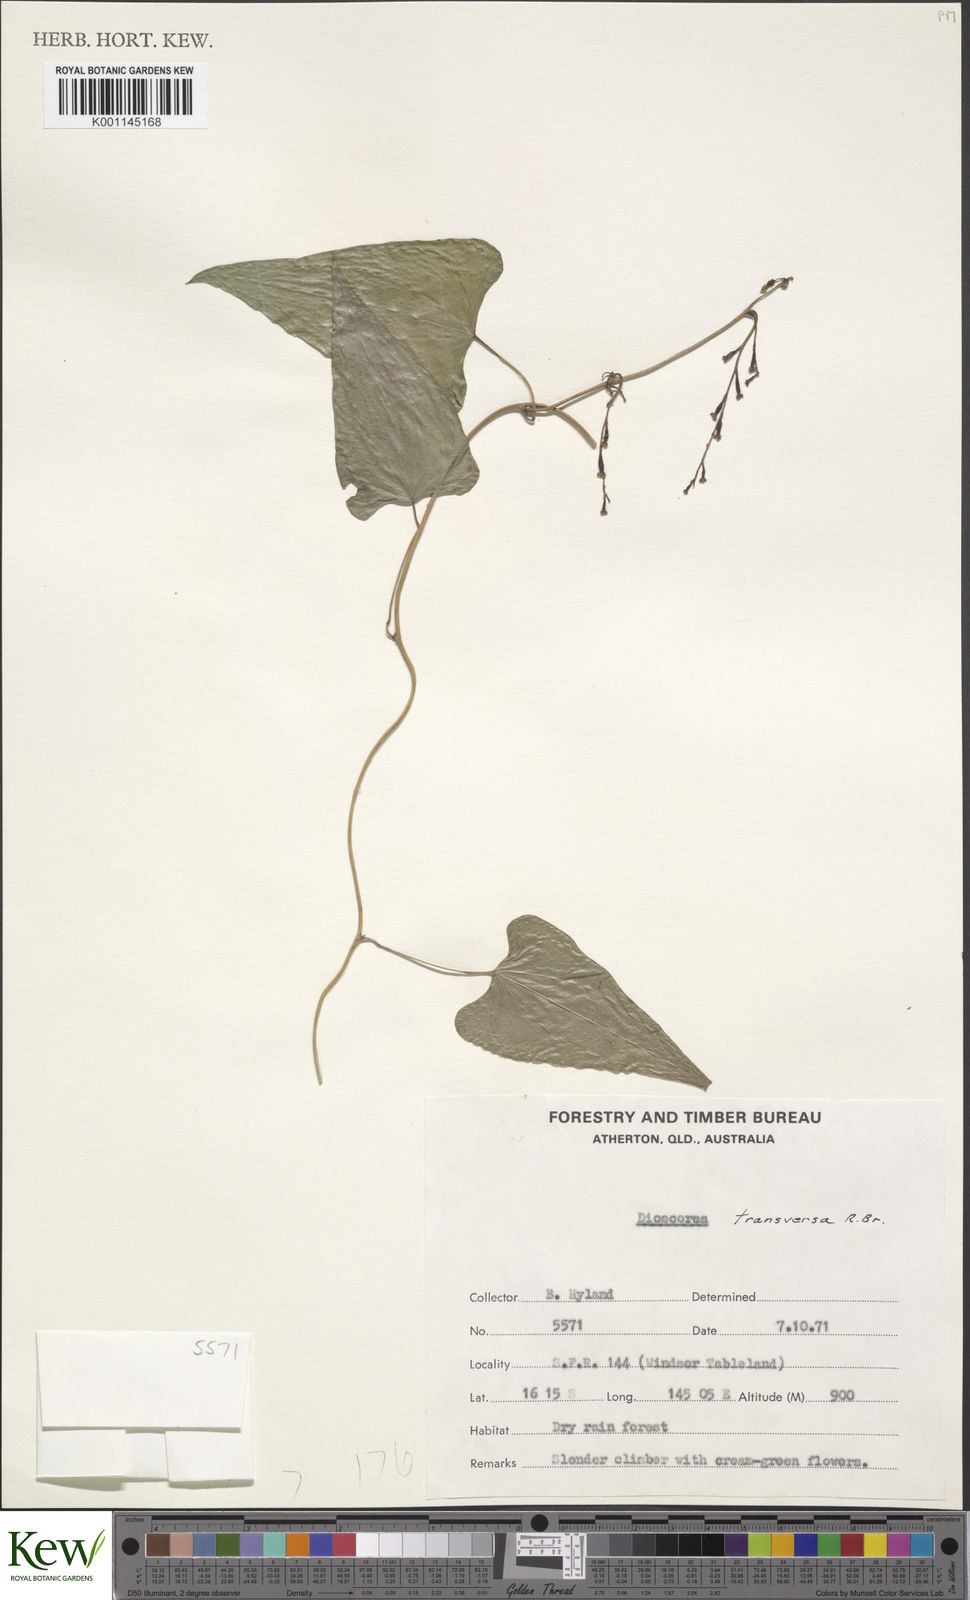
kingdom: Plantae
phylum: Tracheophyta
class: Liliopsida
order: Dioscoreales
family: Dioscoreaceae
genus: Dioscorea
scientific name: Dioscorea transversa
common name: Long yam
